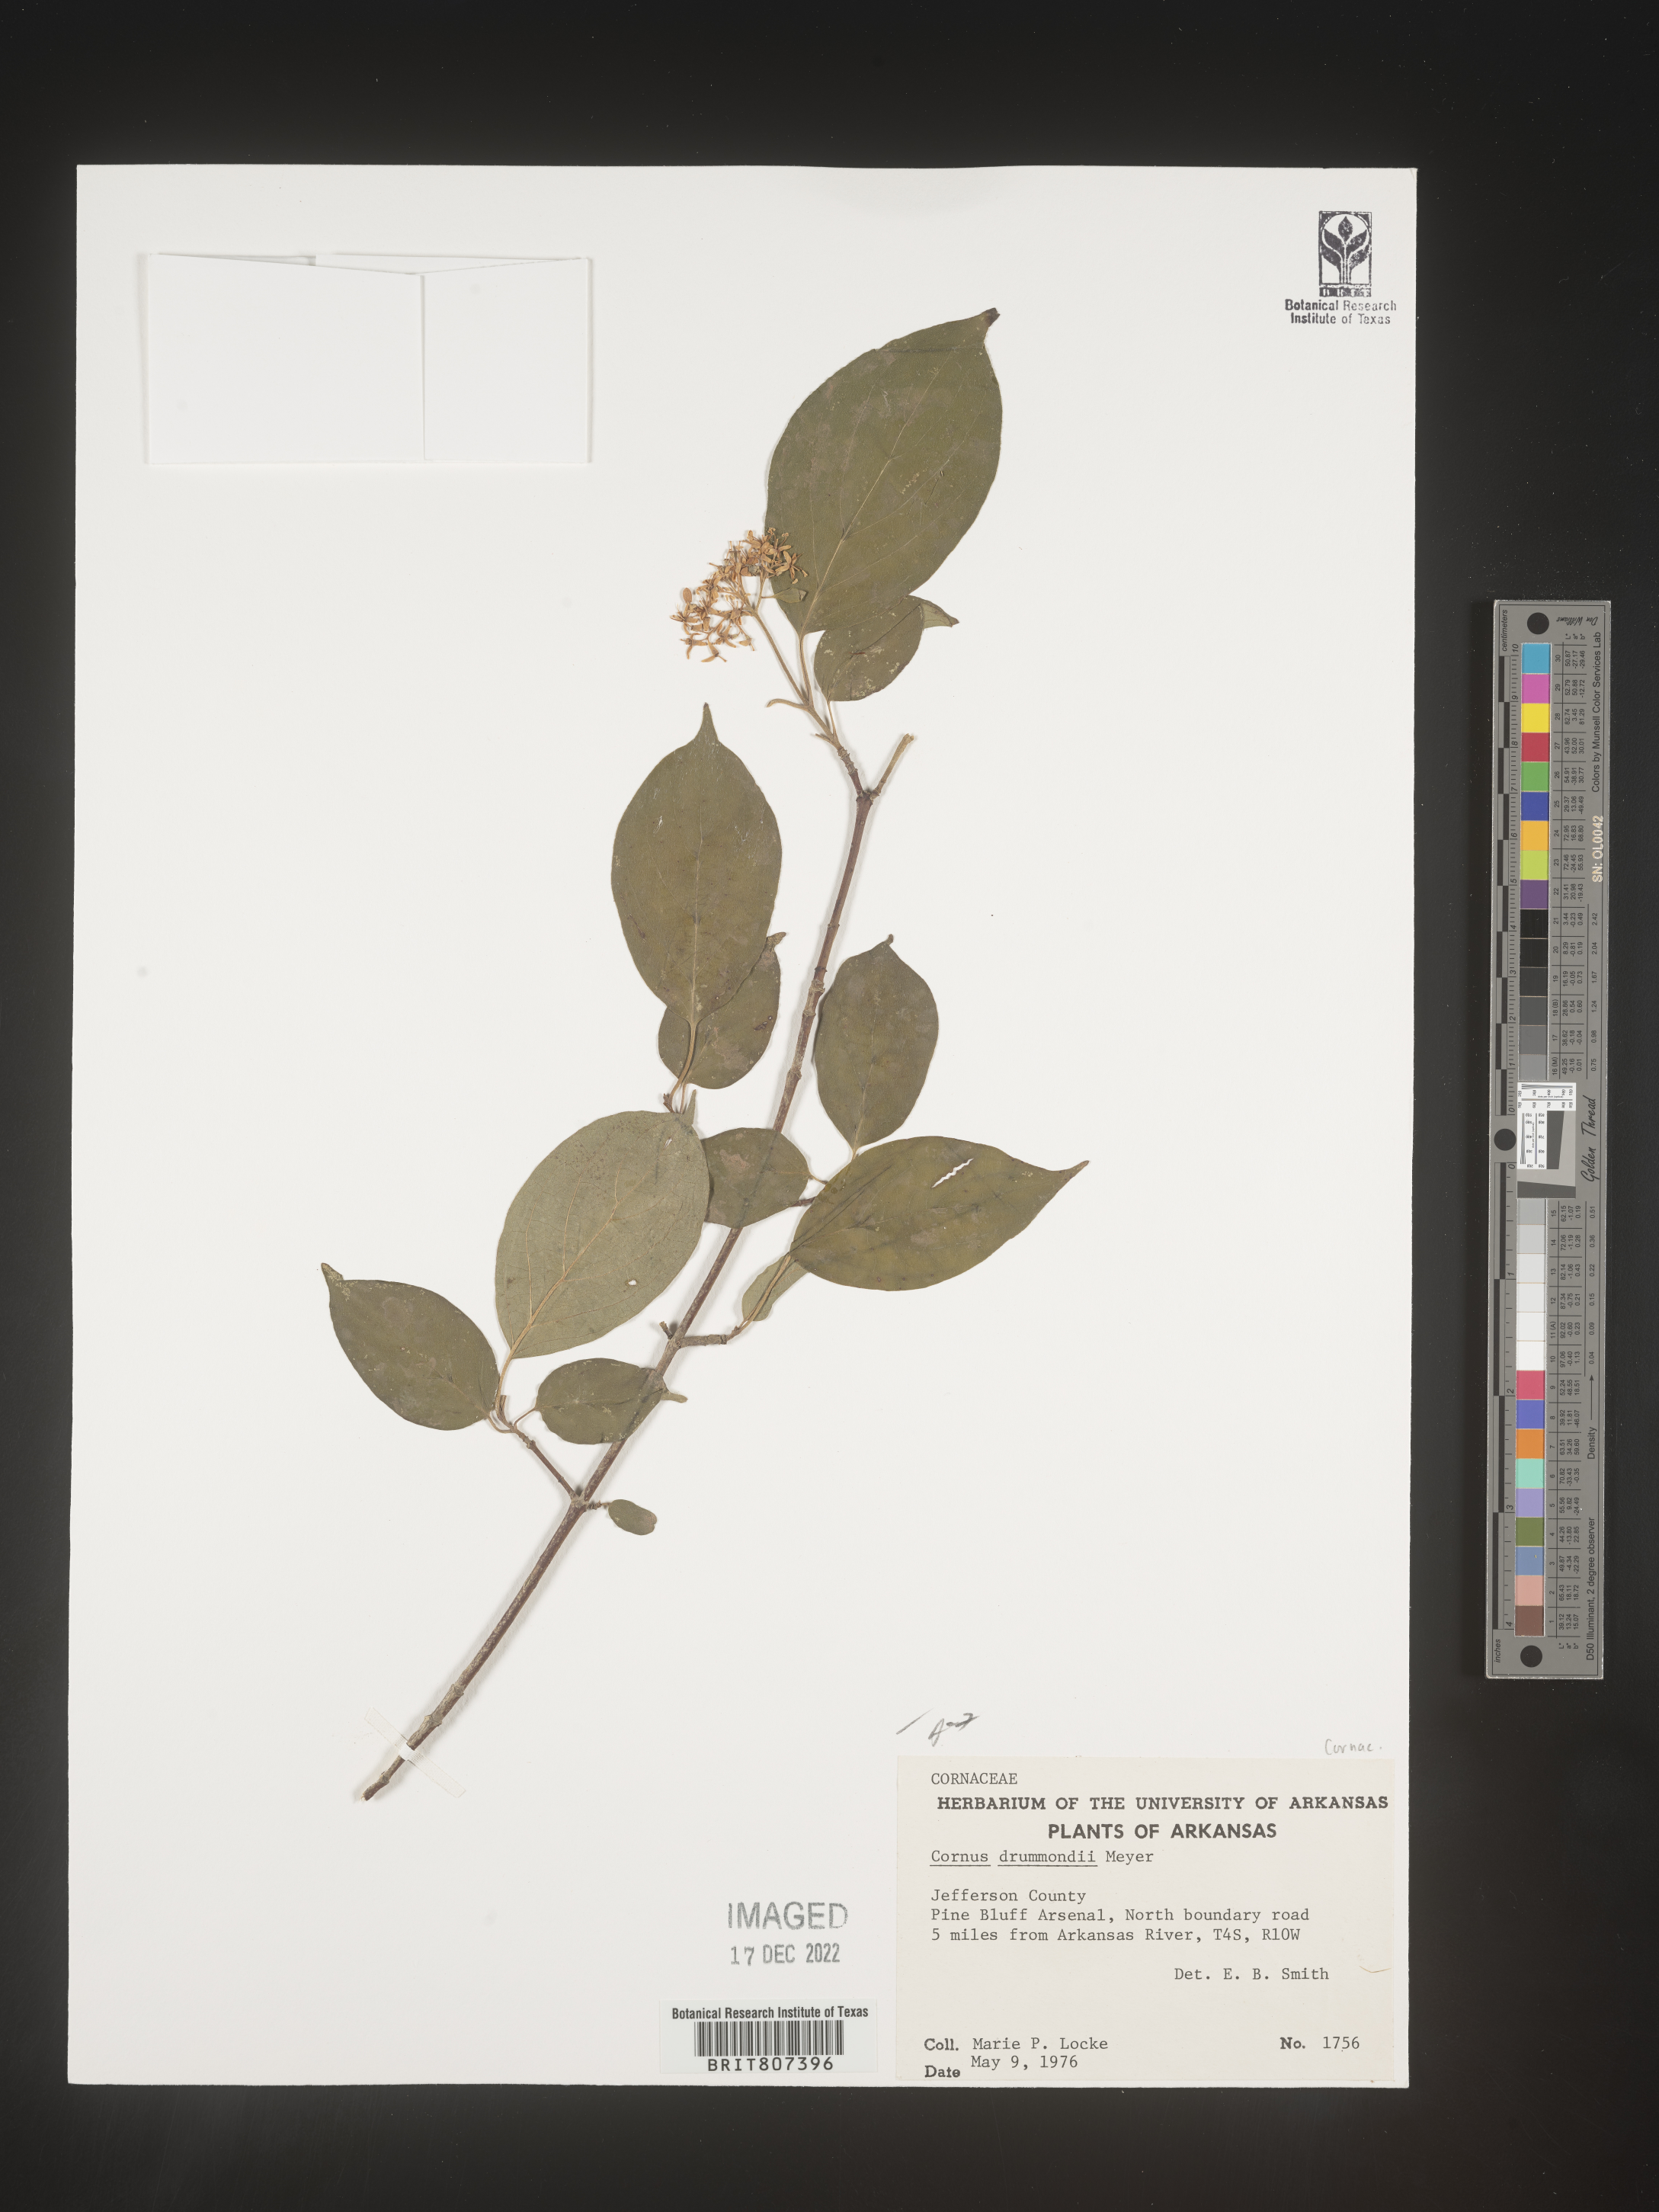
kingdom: Plantae
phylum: Tracheophyta
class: Magnoliopsida
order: Cornales
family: Cornaceae
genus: Cornus
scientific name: Cornus drummondii
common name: Rough-leaf dogwood
